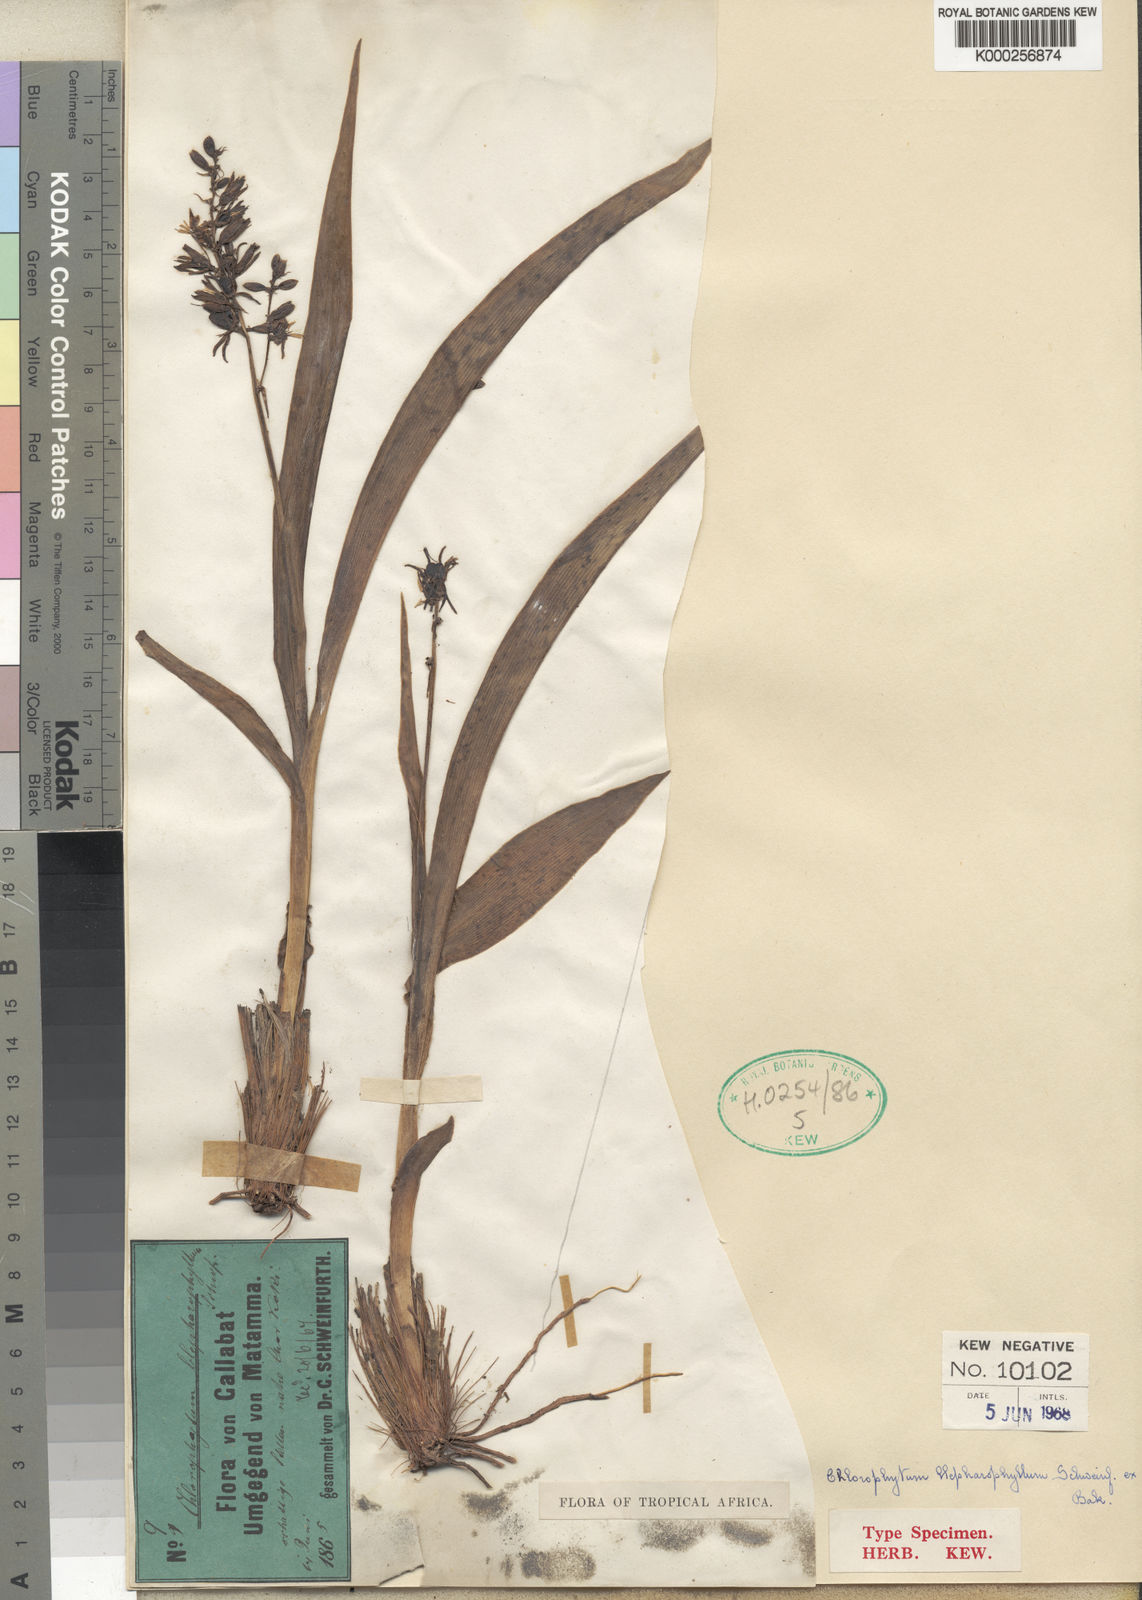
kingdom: Plantae
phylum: Tracheophyta
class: Liliopsida
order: Asparagales
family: Asparagaceae
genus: Chlorophytum
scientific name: Chlorophytum blepharophyllum
